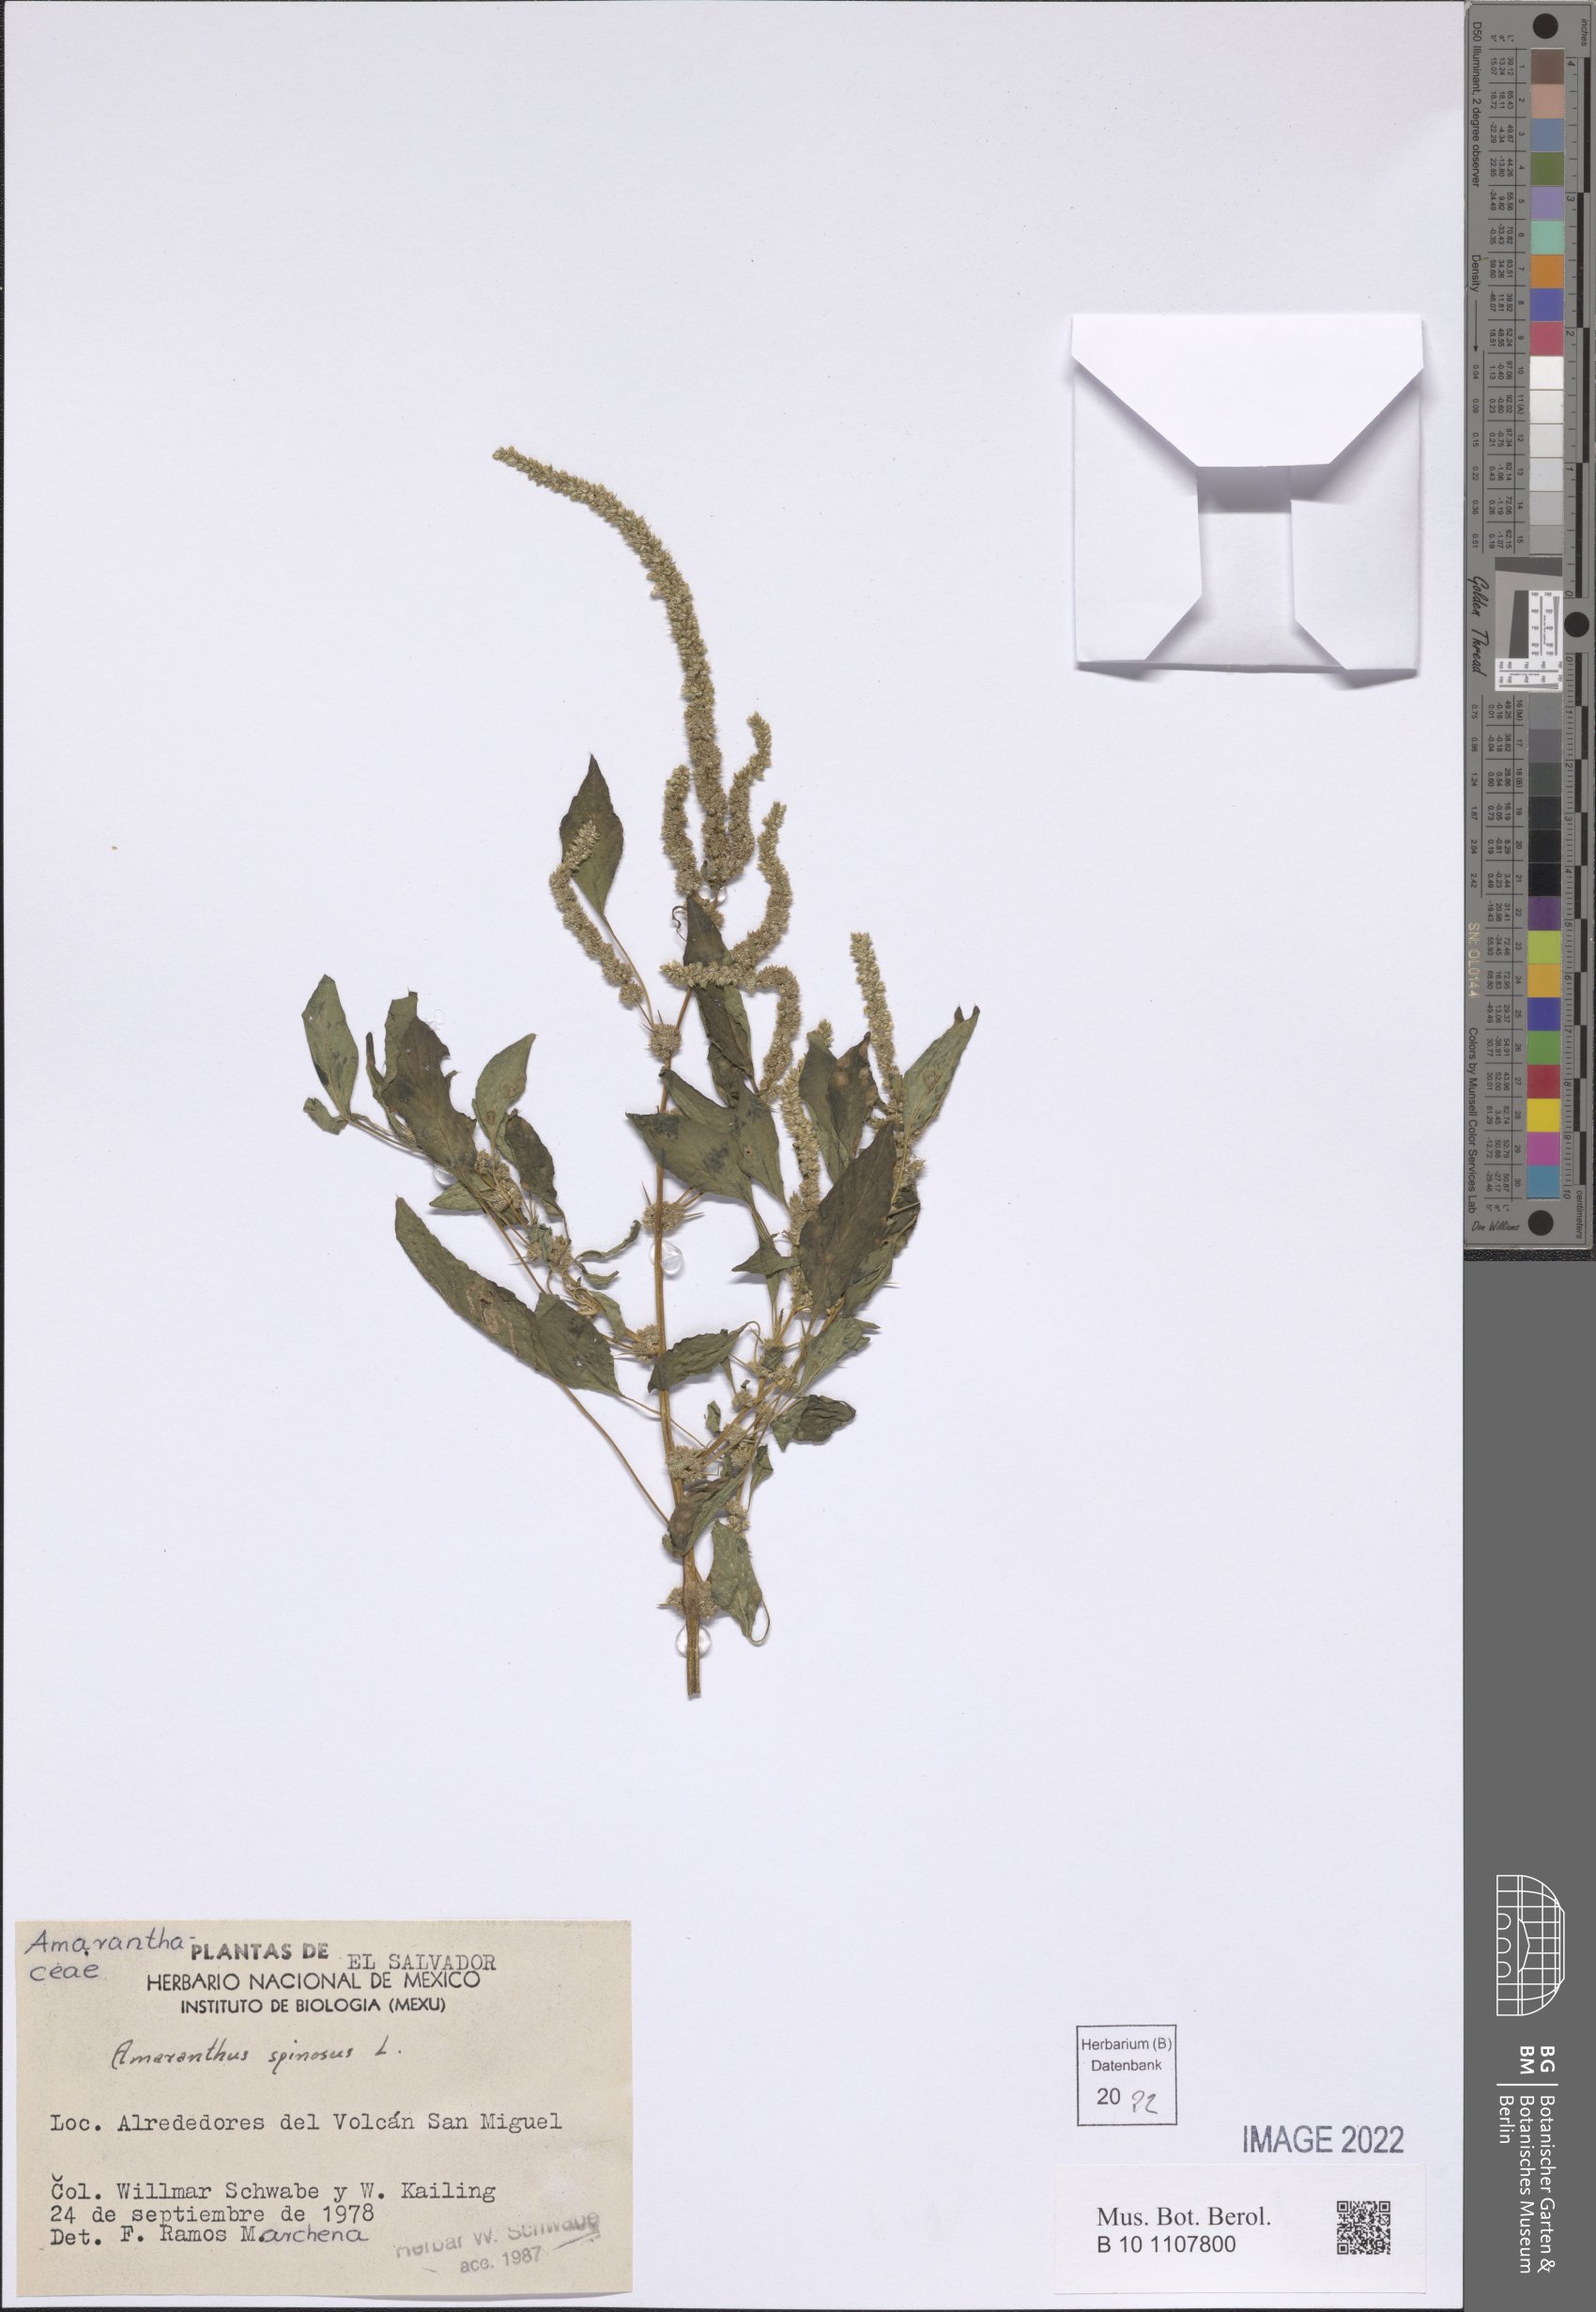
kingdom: Plantae
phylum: Tracheophyta
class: Magnoliopsida
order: Caryophyllales
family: Amaranthaceae
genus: Amaranthus
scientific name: Amaranthus spinosus
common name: Spiny amaranth
